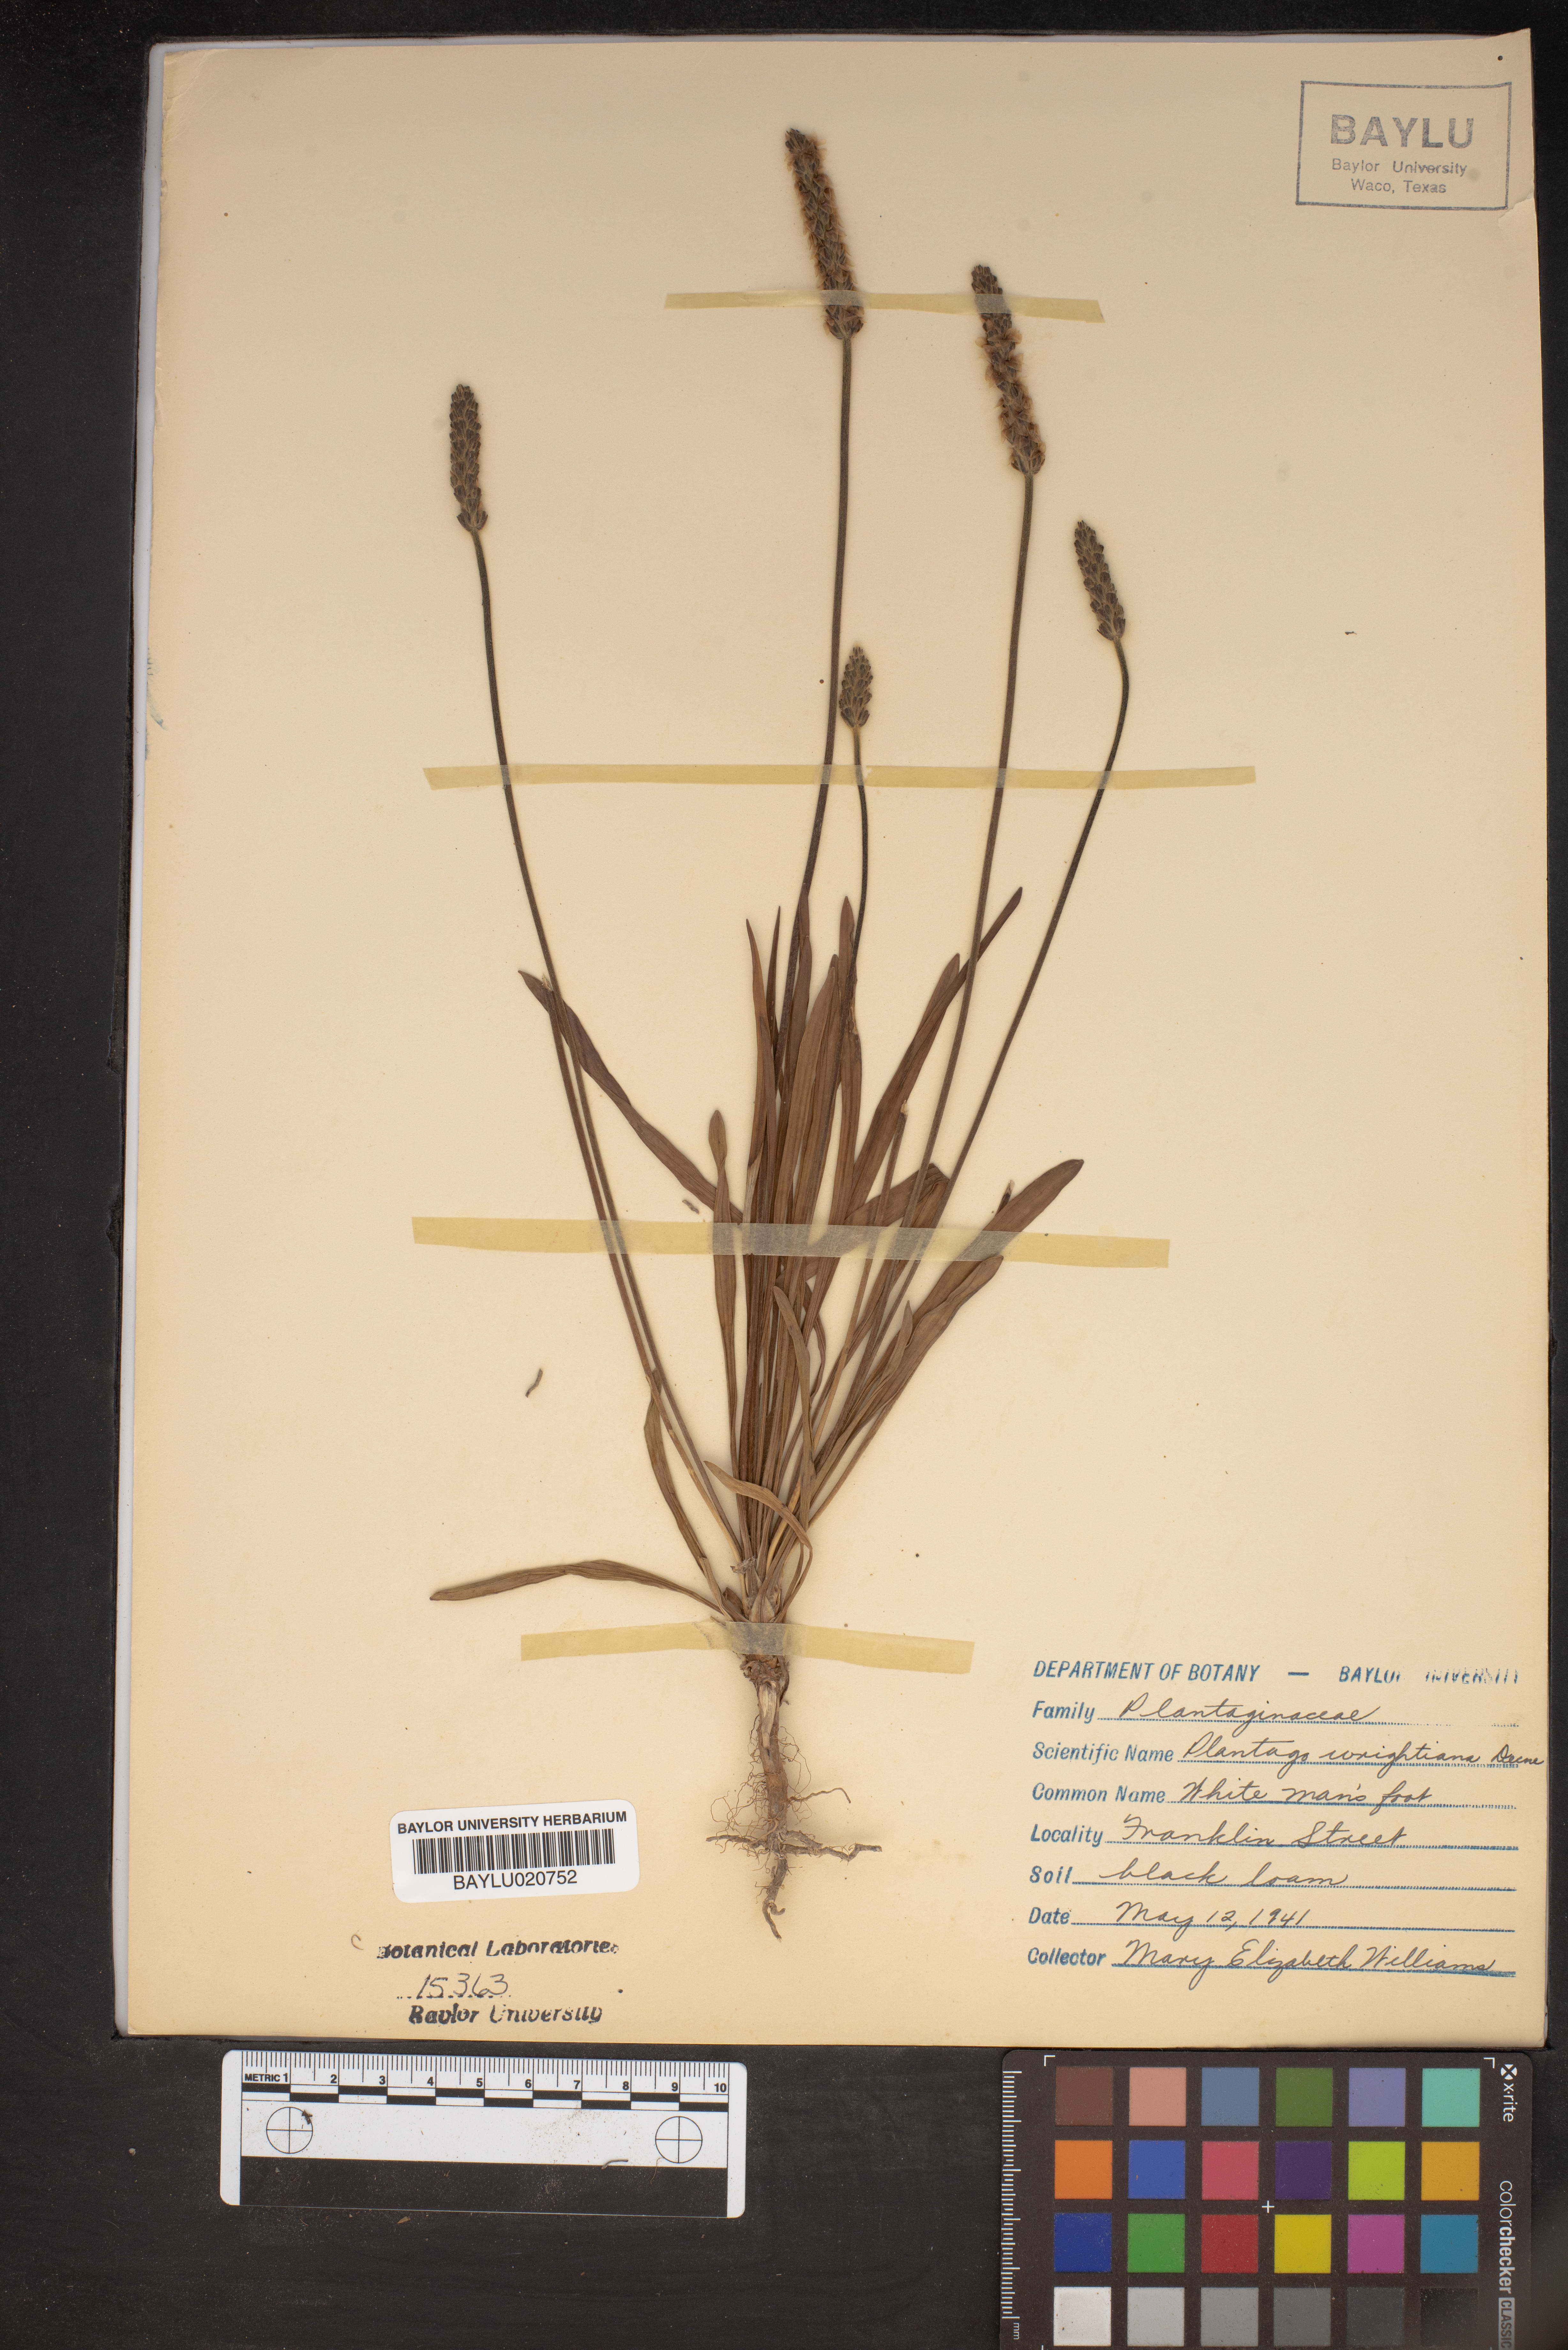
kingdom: Plantae
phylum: Tracheophyta
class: Magnoliopsida
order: Lamiales
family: Plantaginaceae
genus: Plantago
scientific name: Plantago wrightiana
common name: Wright's plantain
